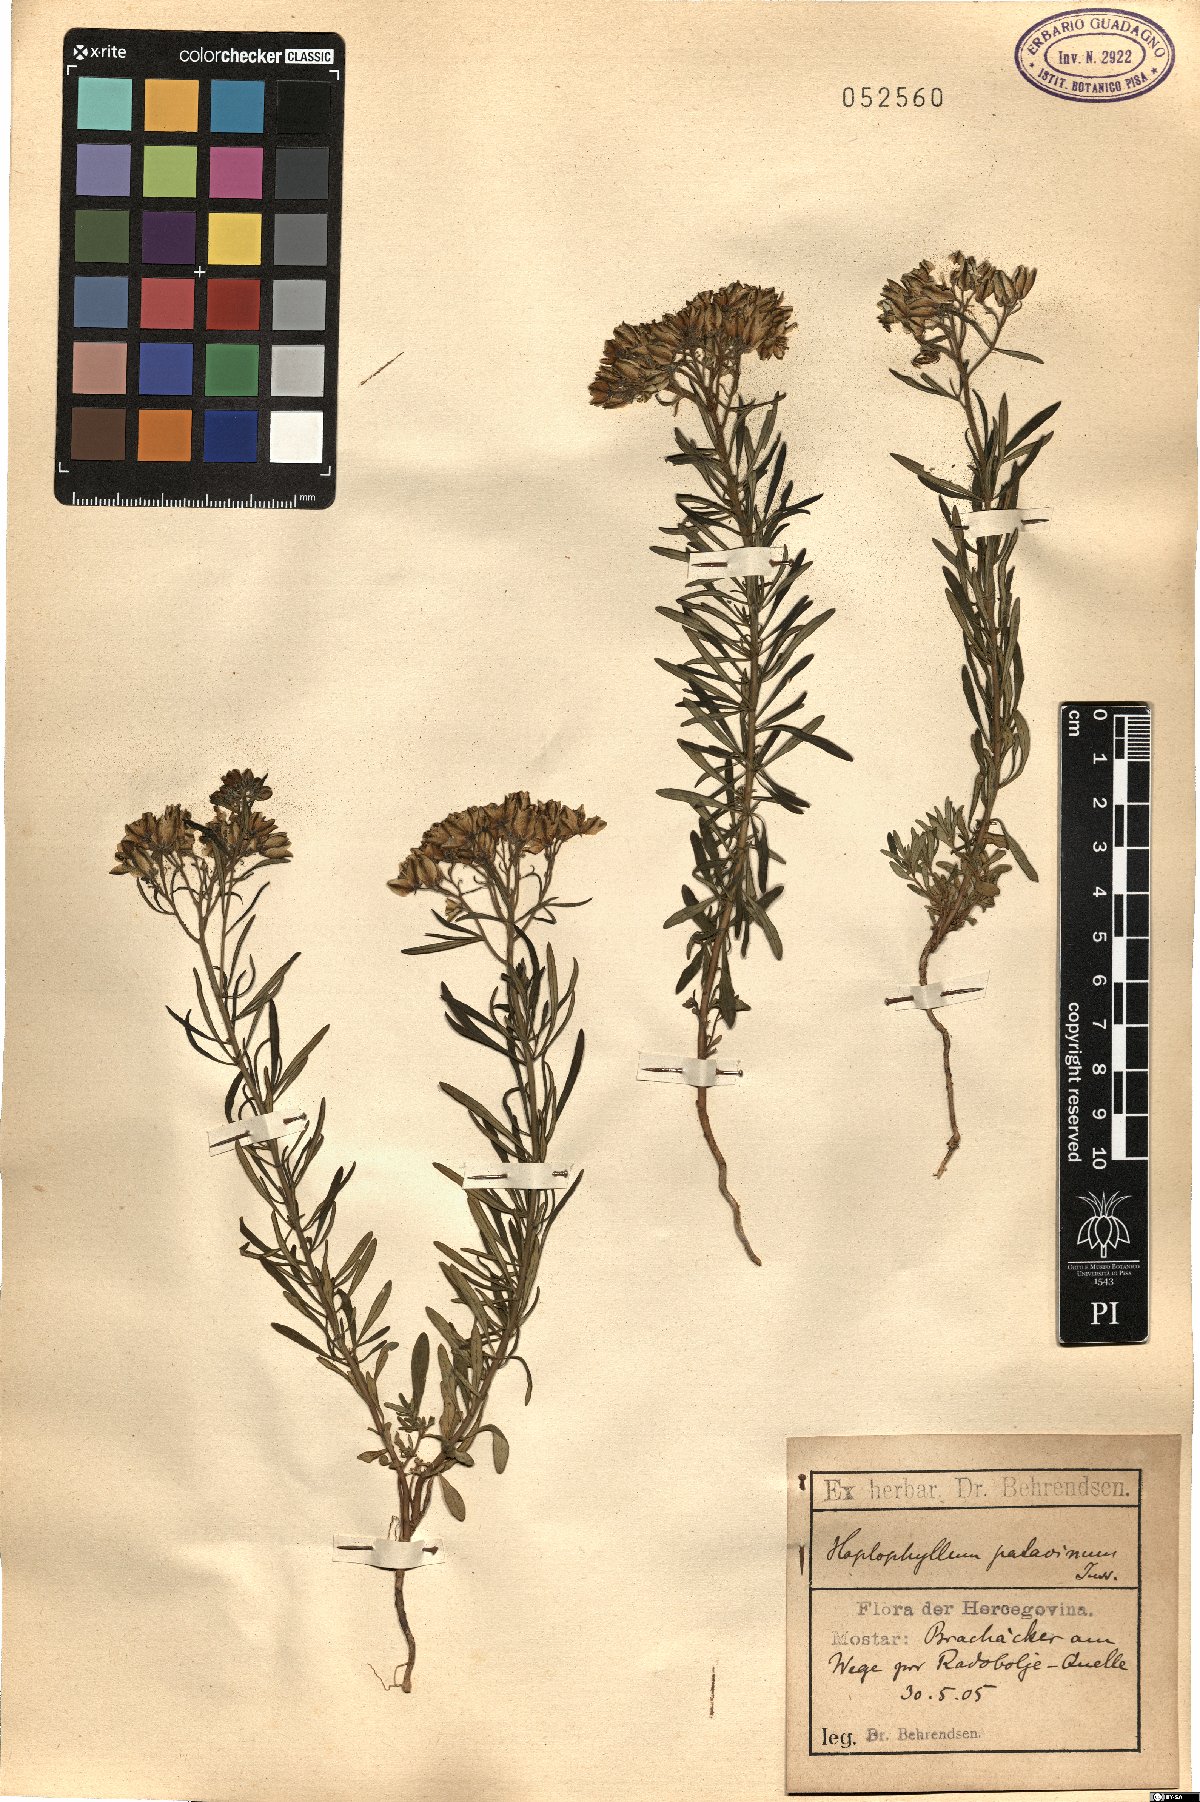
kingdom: Plantae
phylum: Tracheophyta
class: Magnoliopsida
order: Sapindales
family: Rutaceae
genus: Haplophyllum
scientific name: Haplophyllum patavinum
